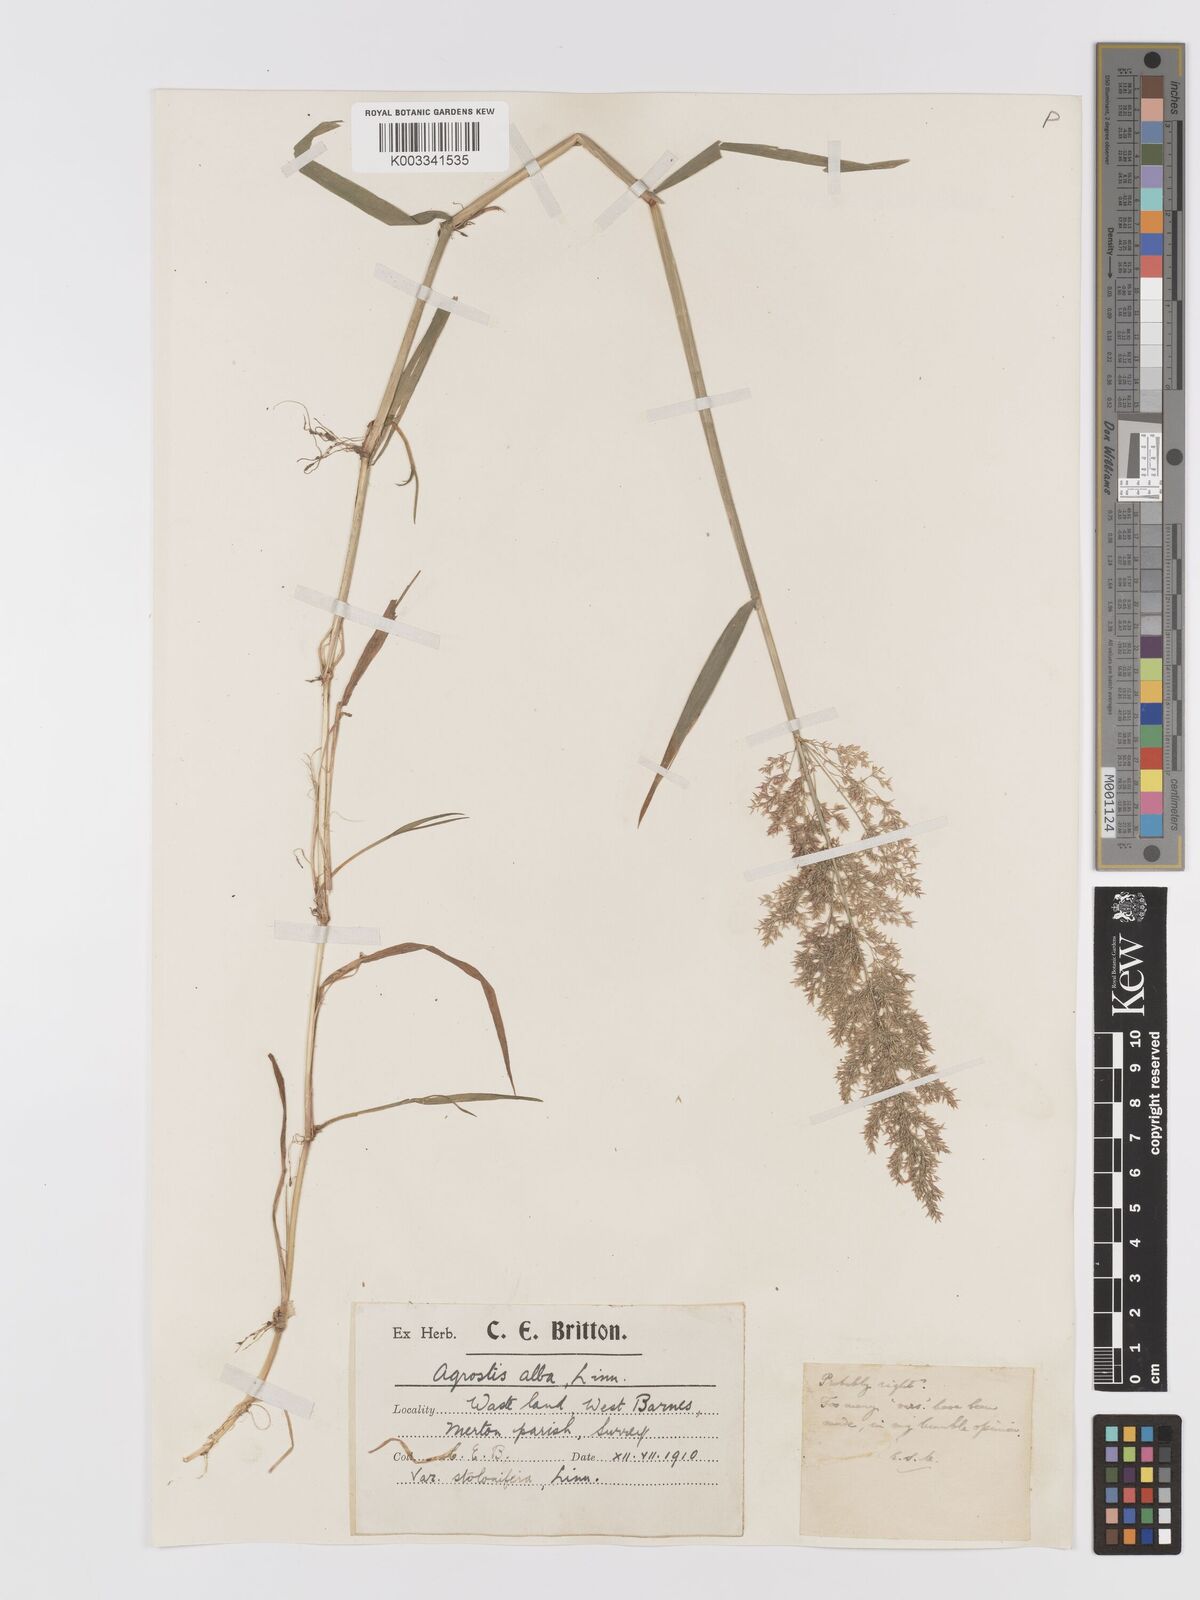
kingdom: Plantae
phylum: Tracheophyta
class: Liliopsida
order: Poales
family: Poaceae
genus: Agrostis
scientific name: Agrostis stolonifera
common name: Creeping bentgrass
